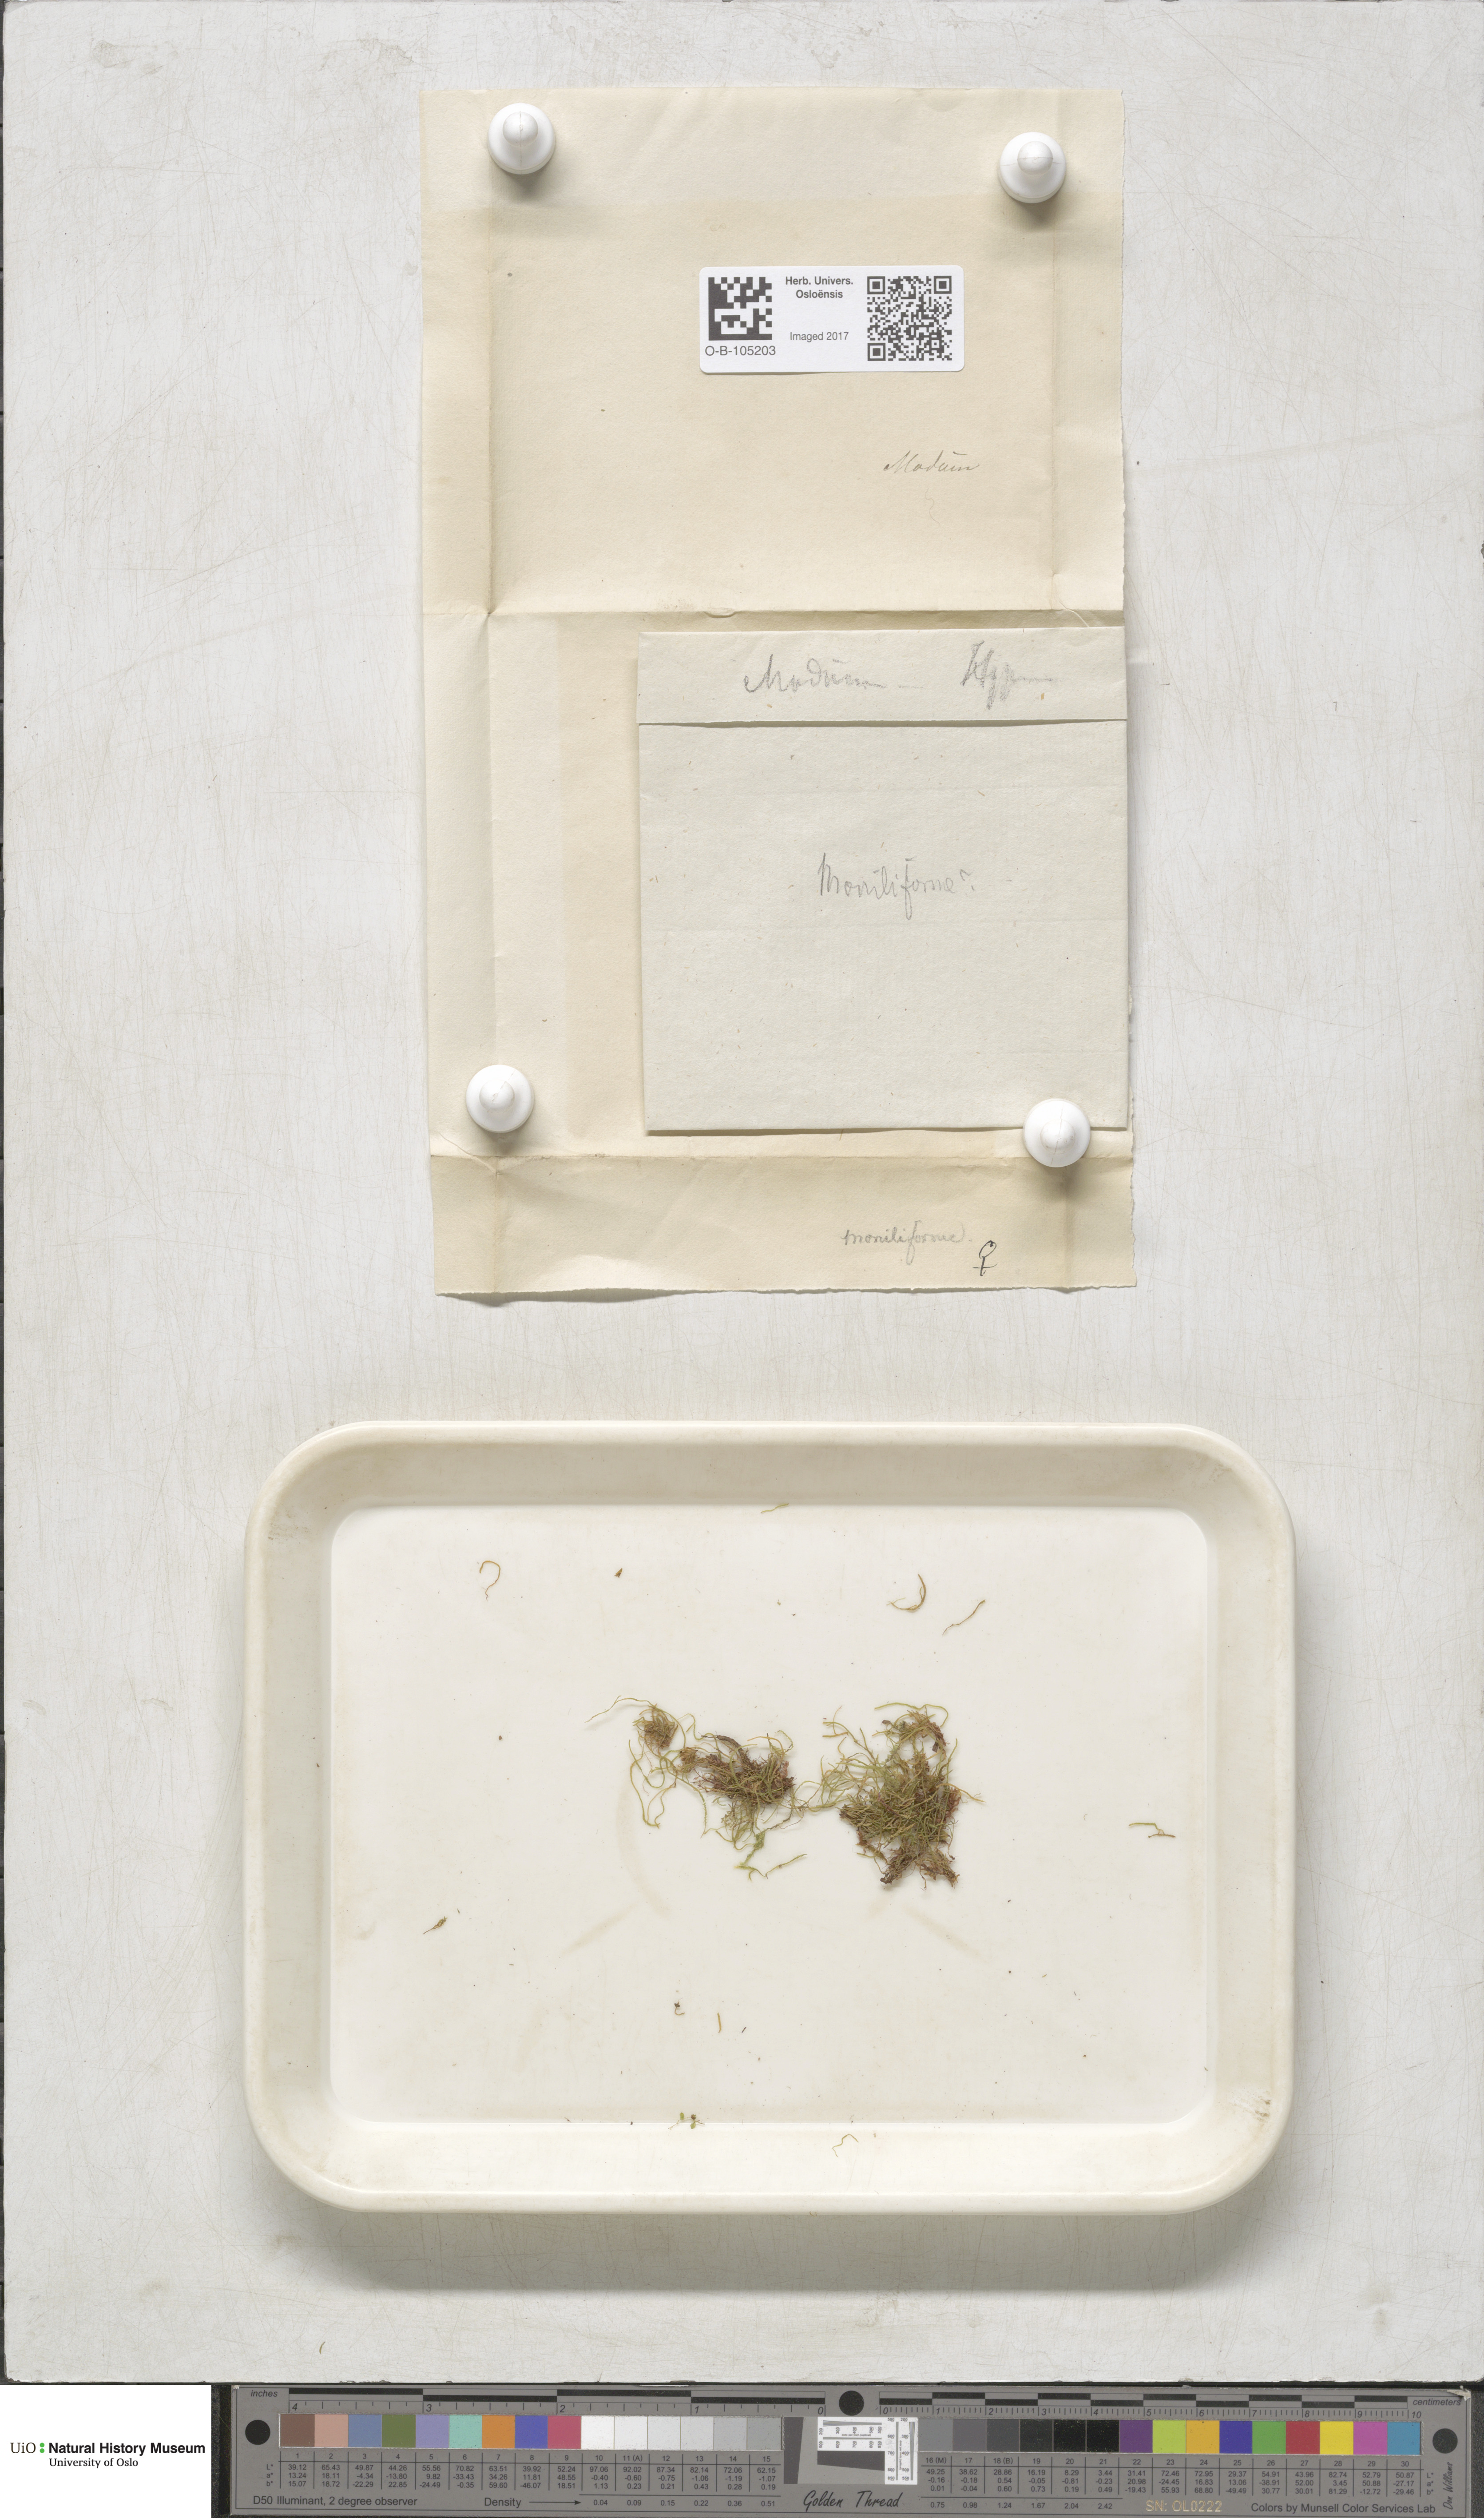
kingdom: Plantae
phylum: Bryophyta
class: Bryopsida
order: Hypnales
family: Plagiotheciaceae
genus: Myurella
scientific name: Myurella julacea
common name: Small mousetail moss
